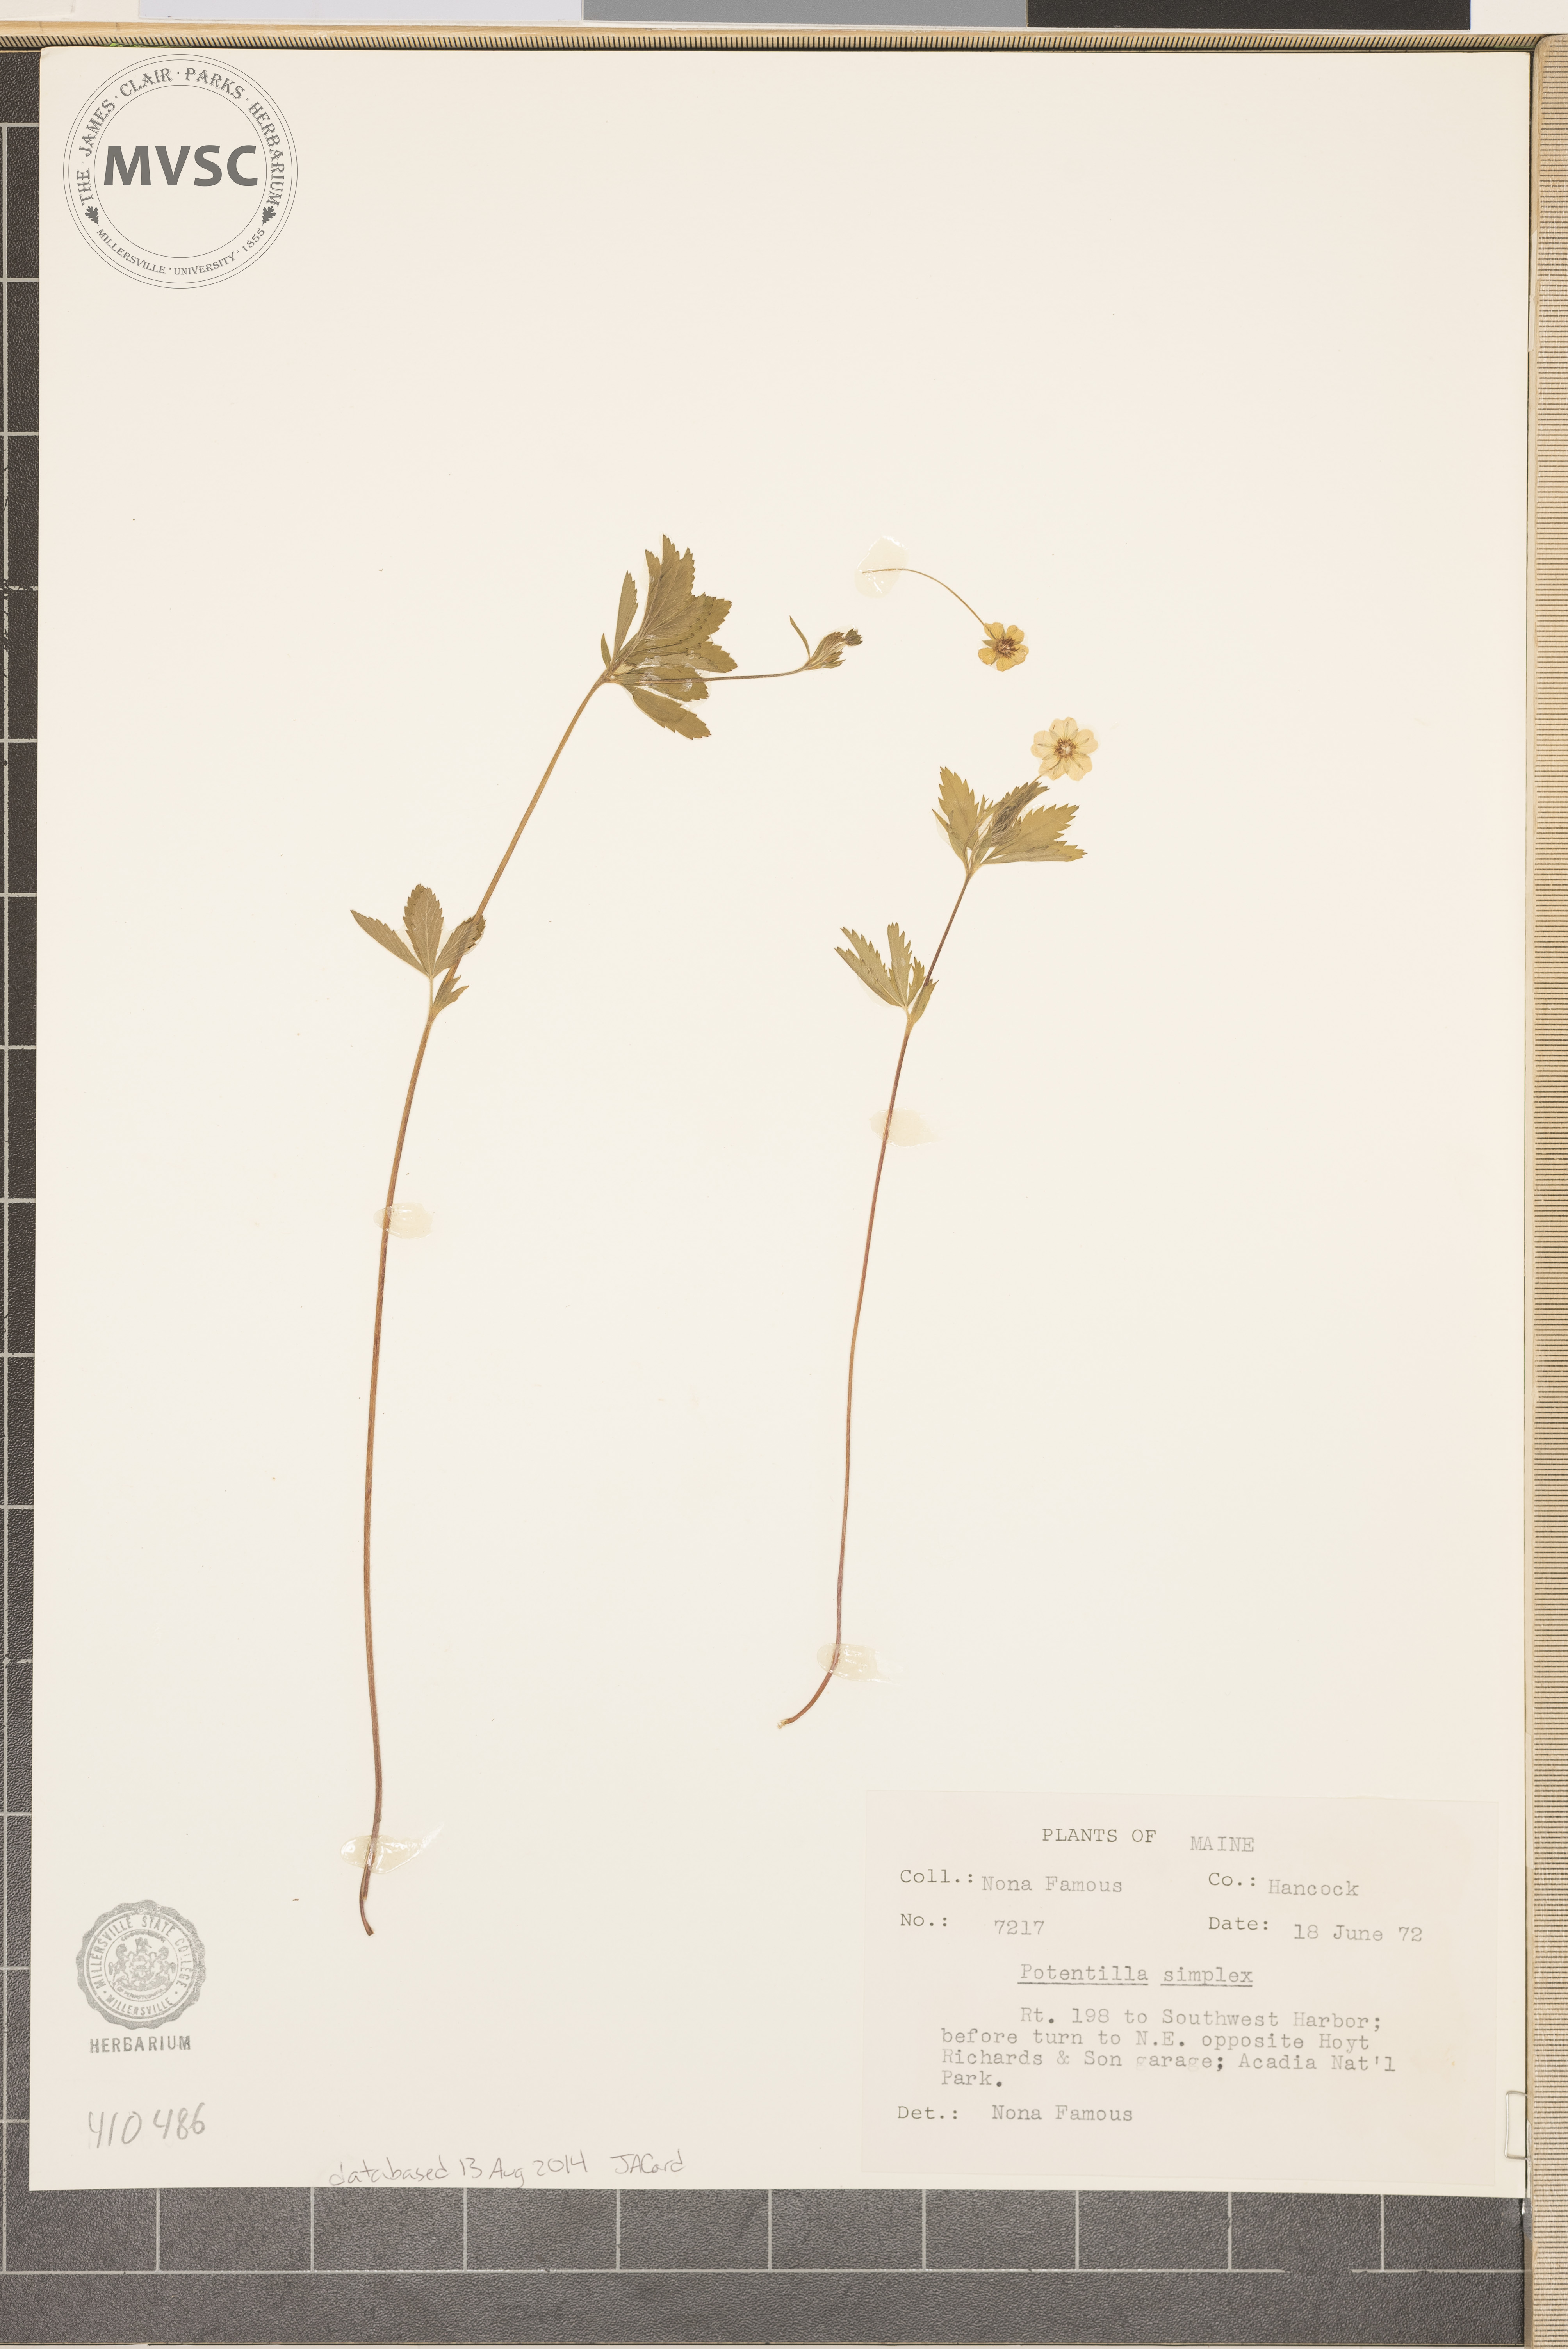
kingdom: Plantae
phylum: Tracheophyta
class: Magnoliopsida
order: Rosales
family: Rosaceae
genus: Potentilla
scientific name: Potentilla simplex
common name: Old field cinquefoil
